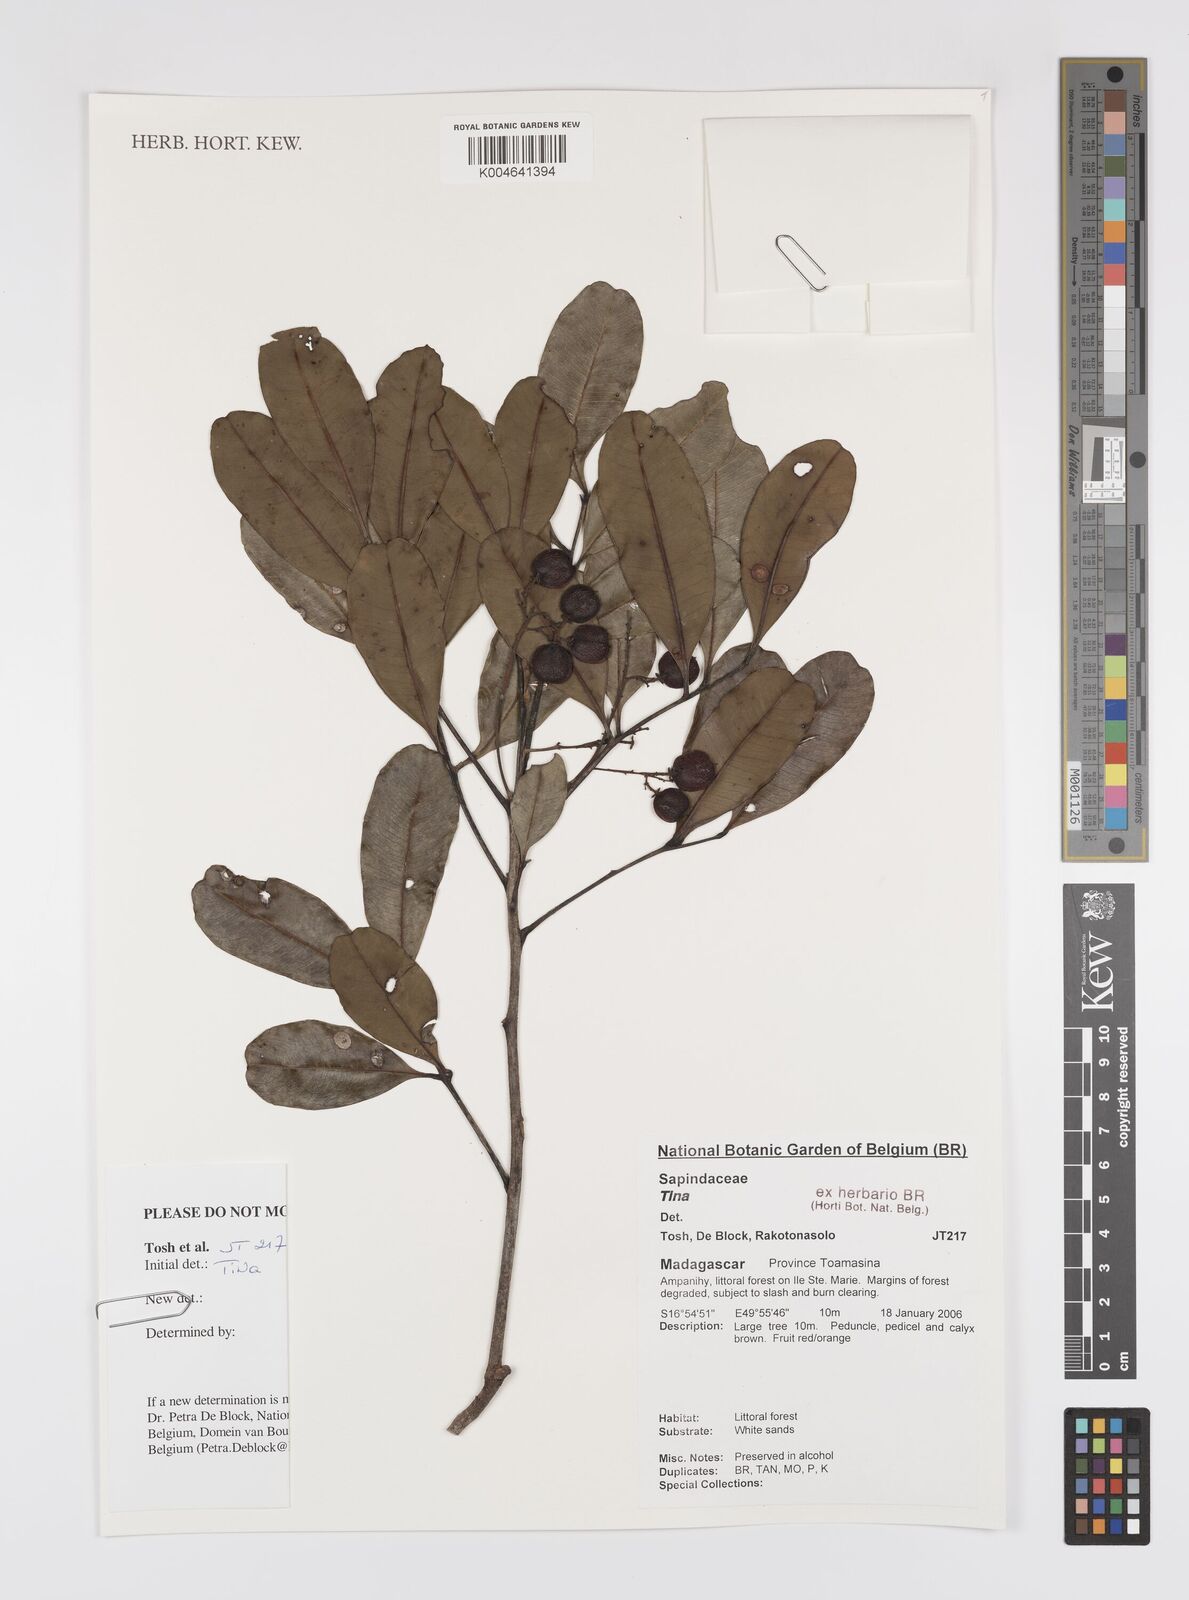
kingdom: Plantae
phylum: Tracheophyta
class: Magnoliopsida
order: Sapindales
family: Sapindaceae
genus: Tina
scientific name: Tina
